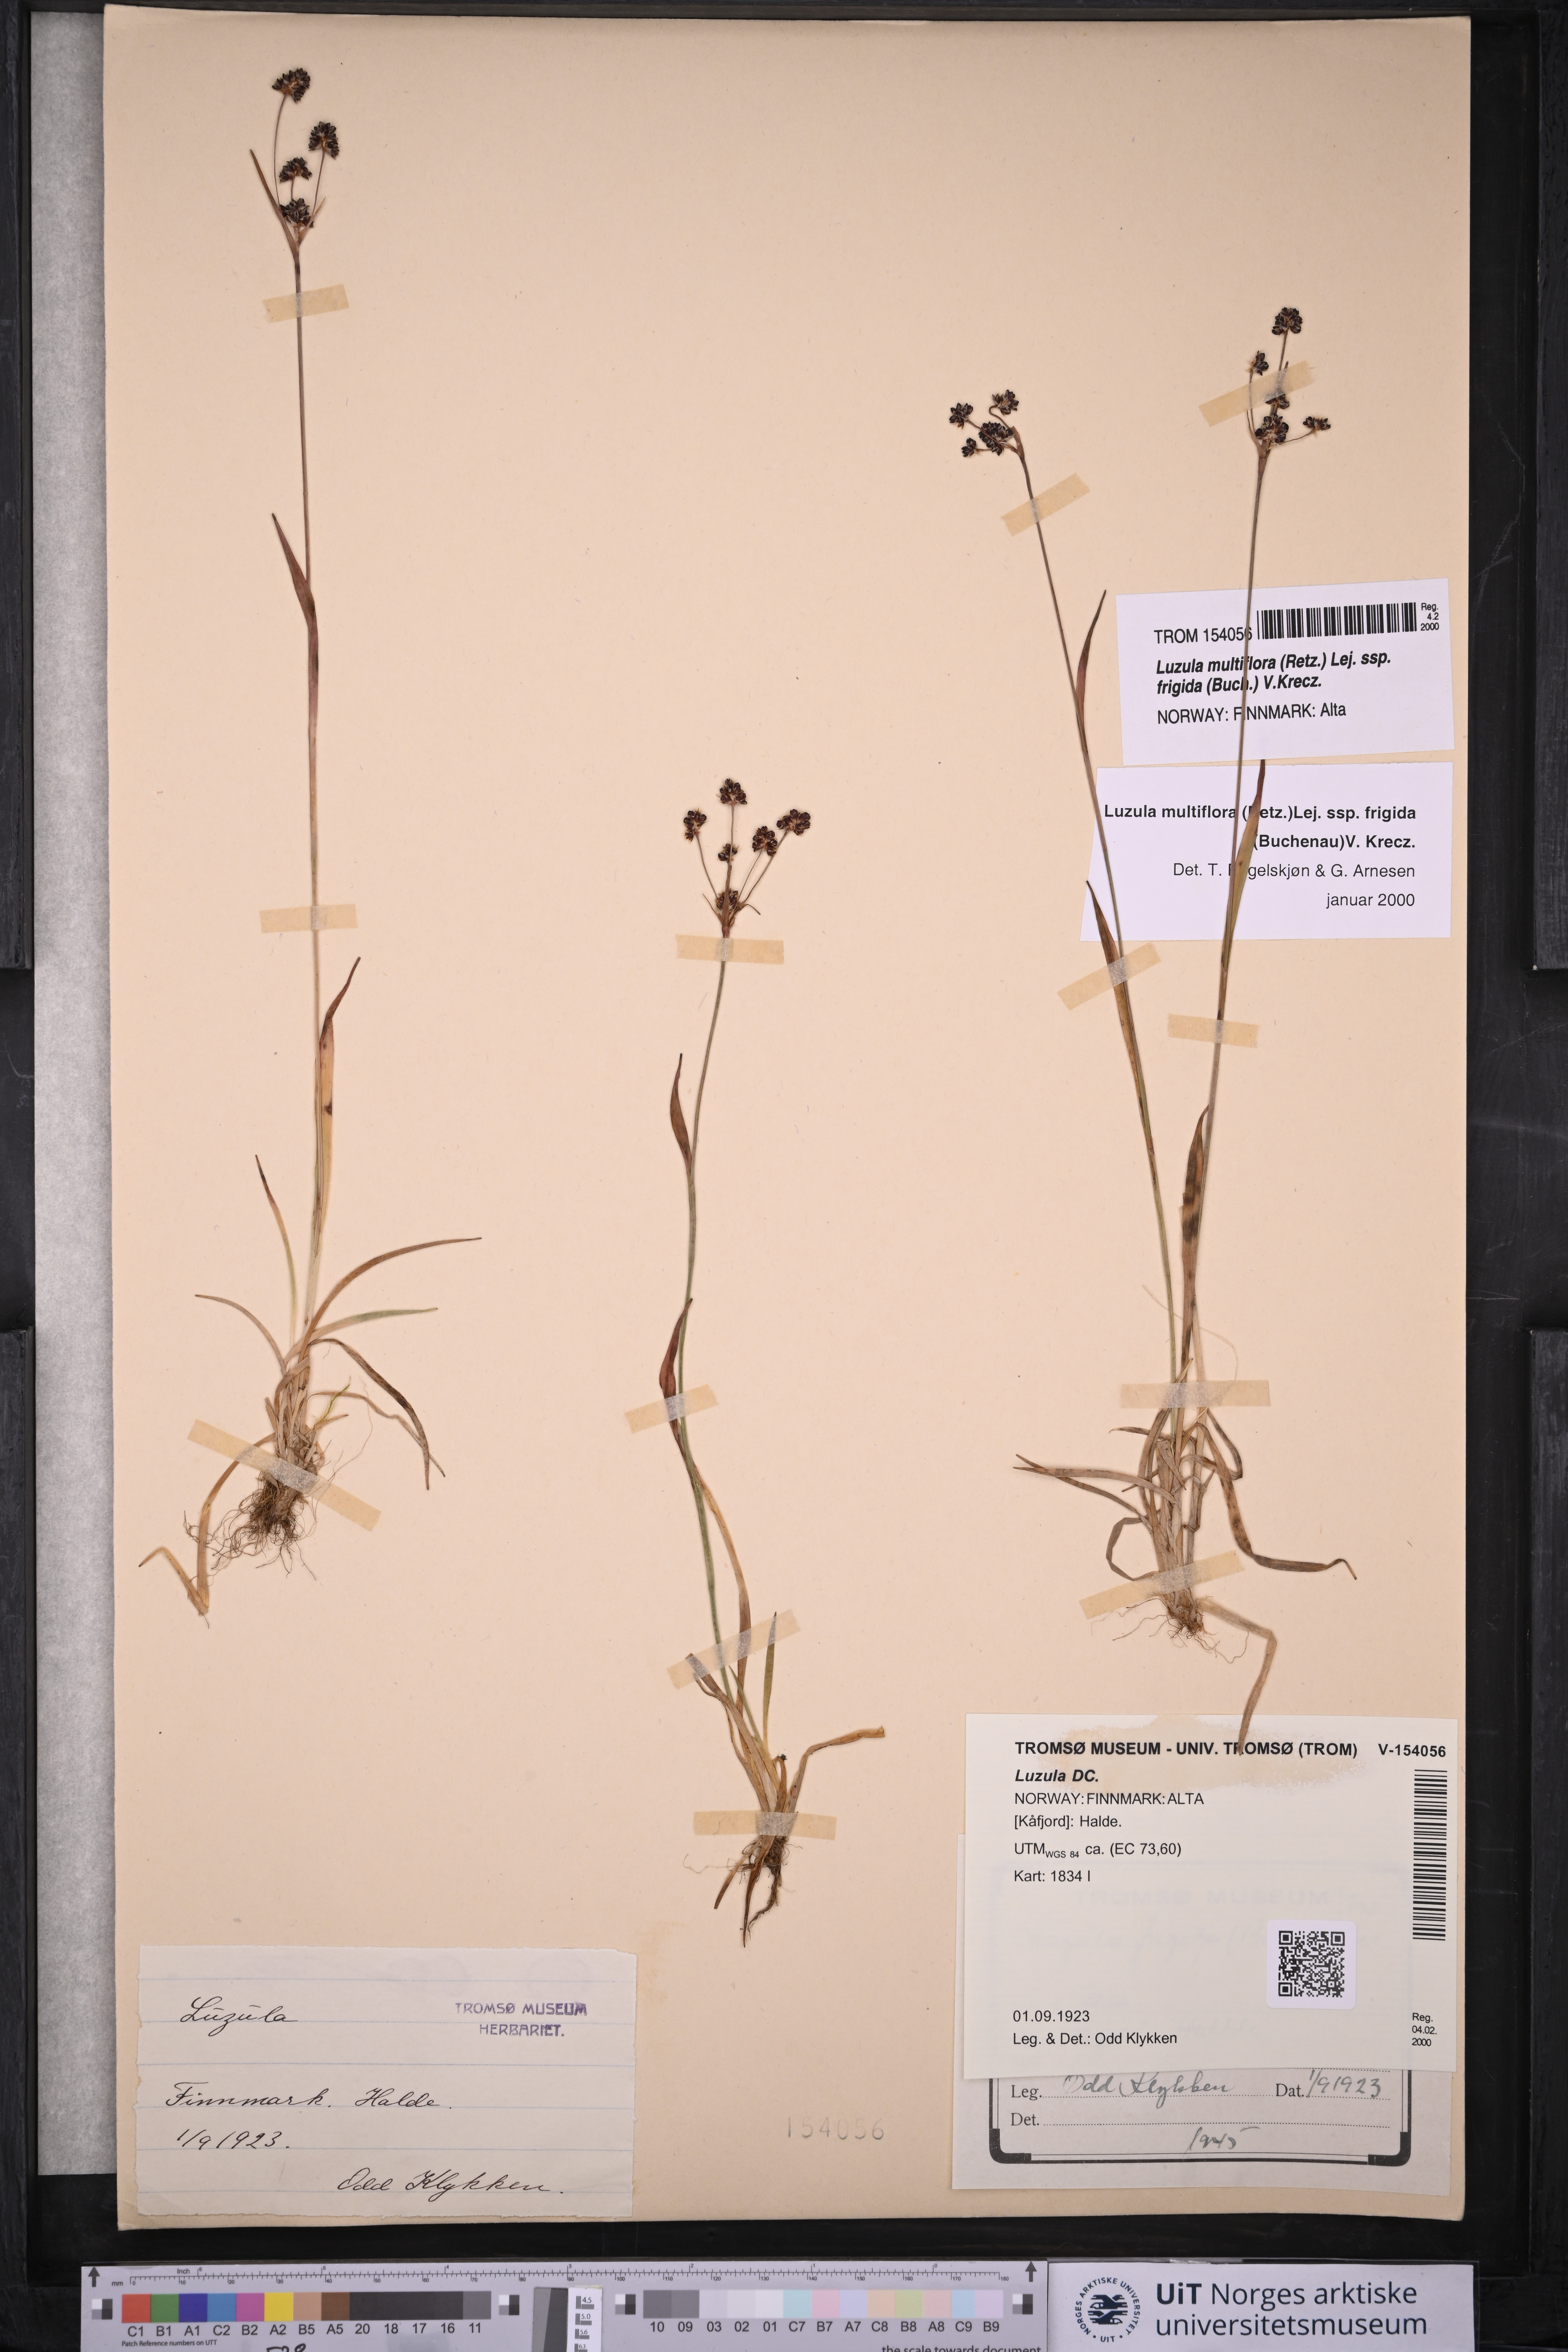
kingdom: Plantae
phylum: Tracheophyta
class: Liliopsida
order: Poales
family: Juncaceae
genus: Luzula
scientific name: Luzula multiflora
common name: Heath wood-rush
